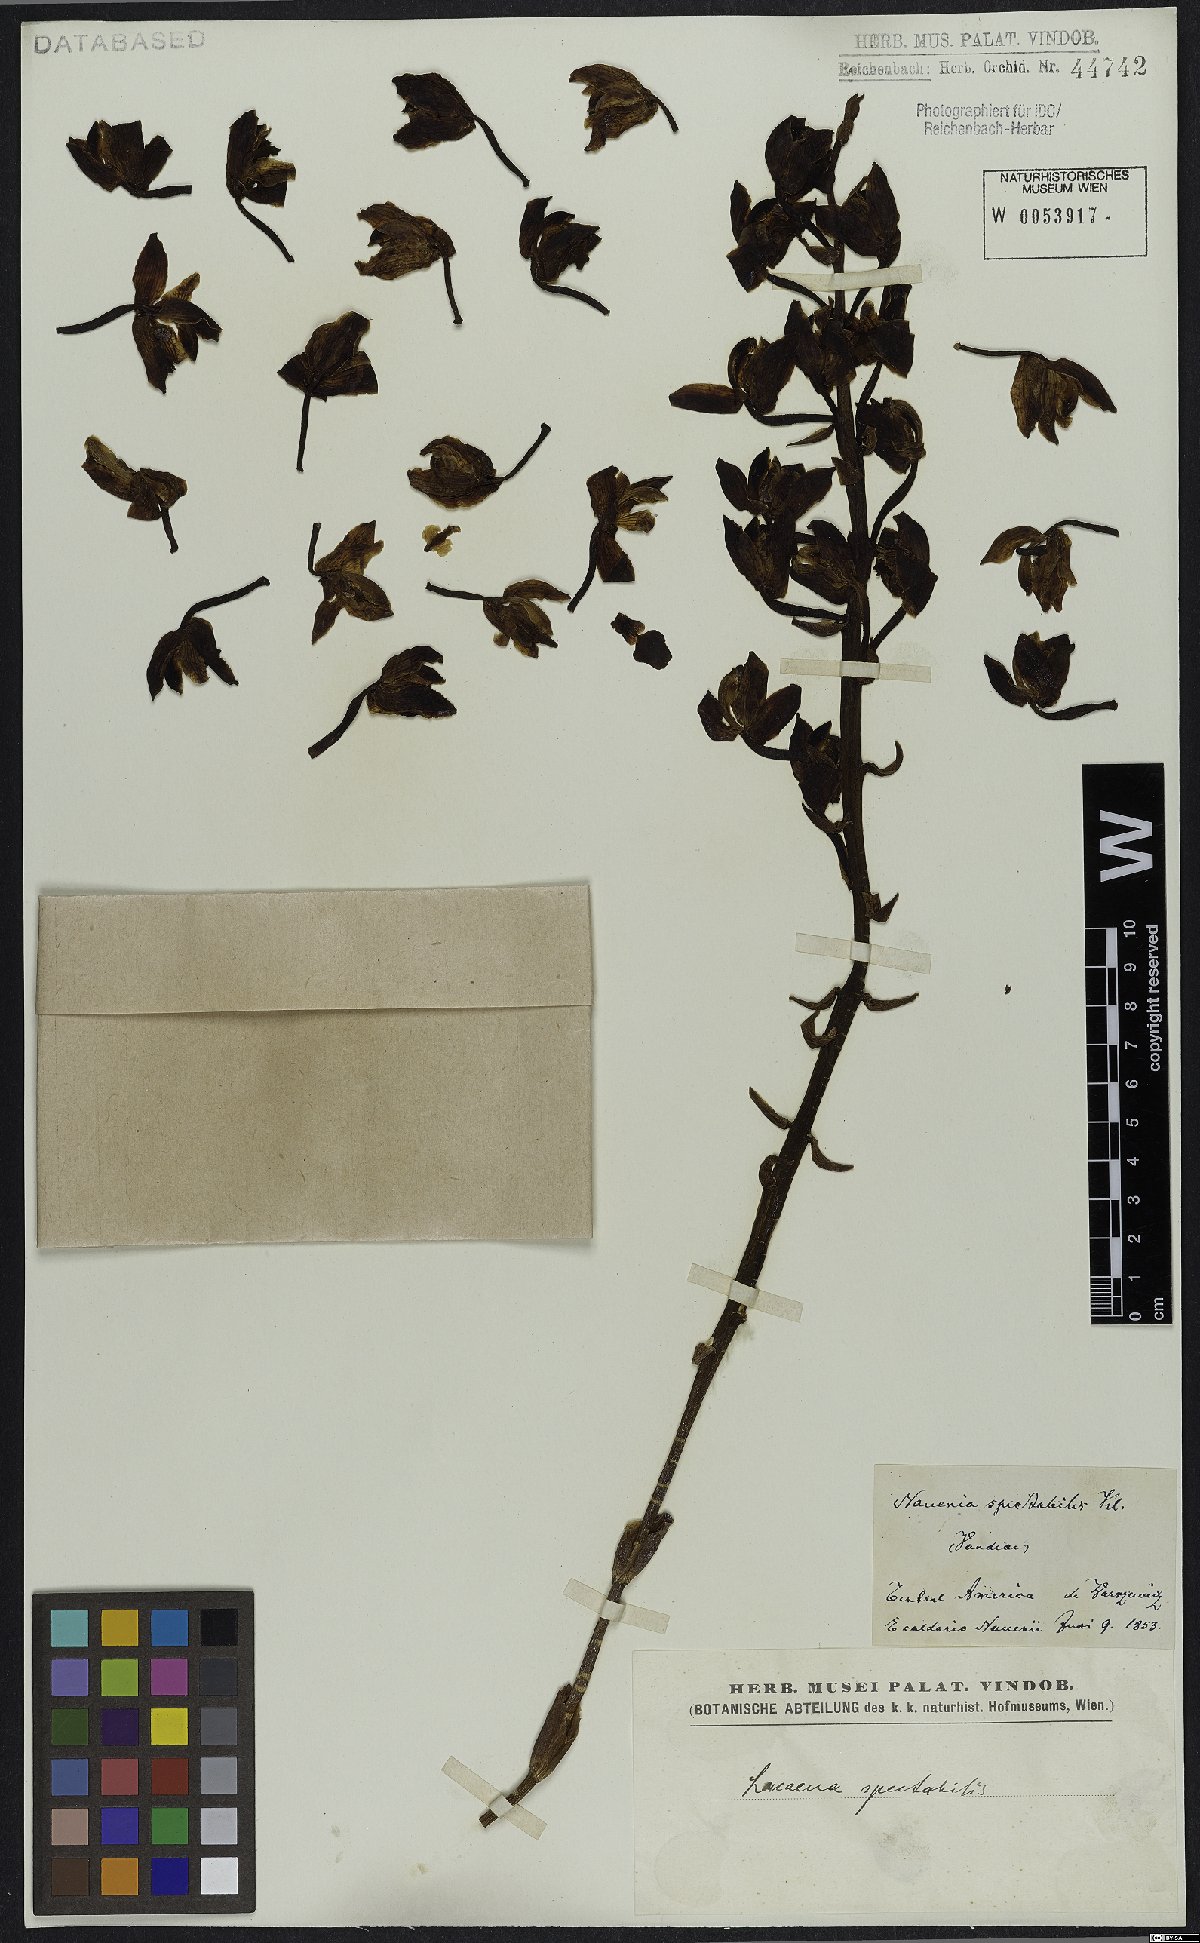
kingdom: Plantae
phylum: Tracheophyta
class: Liliopsida
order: Asparagales
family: Orchidaceae
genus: Lacaena
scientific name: Lacaena spectabilis
